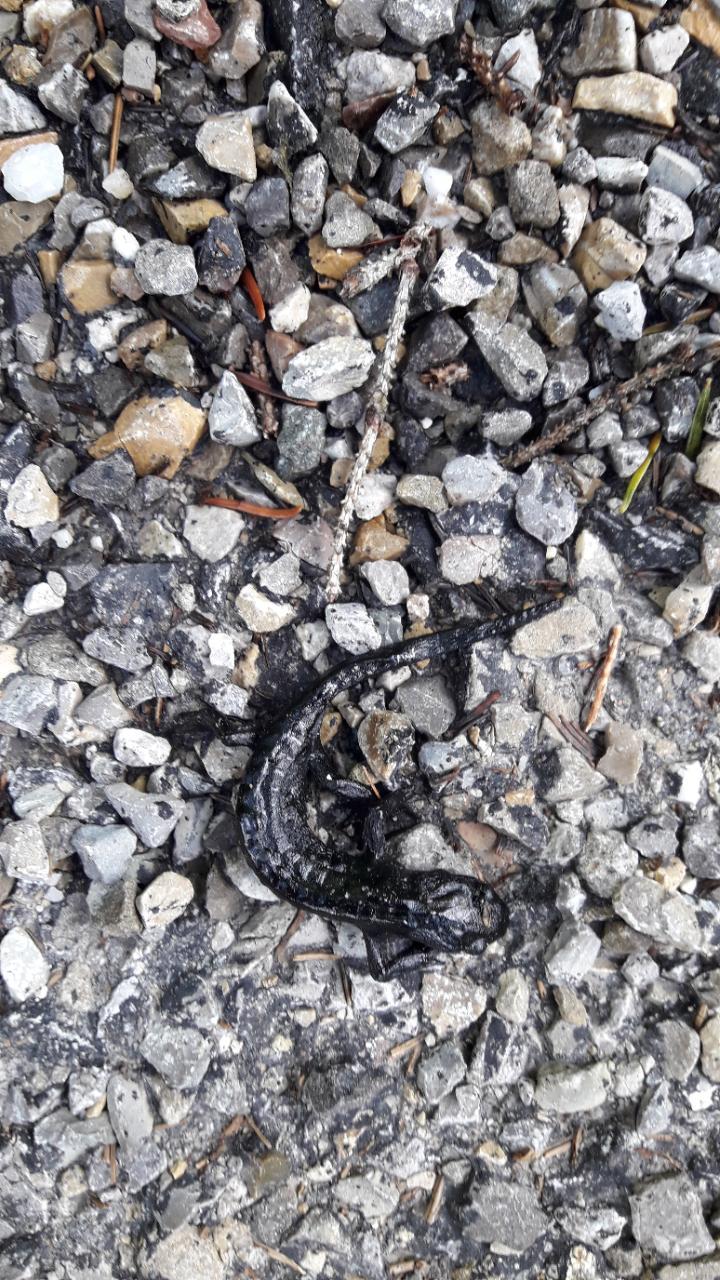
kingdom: Animalia
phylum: Chordata
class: Amphibia
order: Caudata
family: Salamandridae
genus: Salamandra
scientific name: Salamandra atra
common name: Alpine salamander
